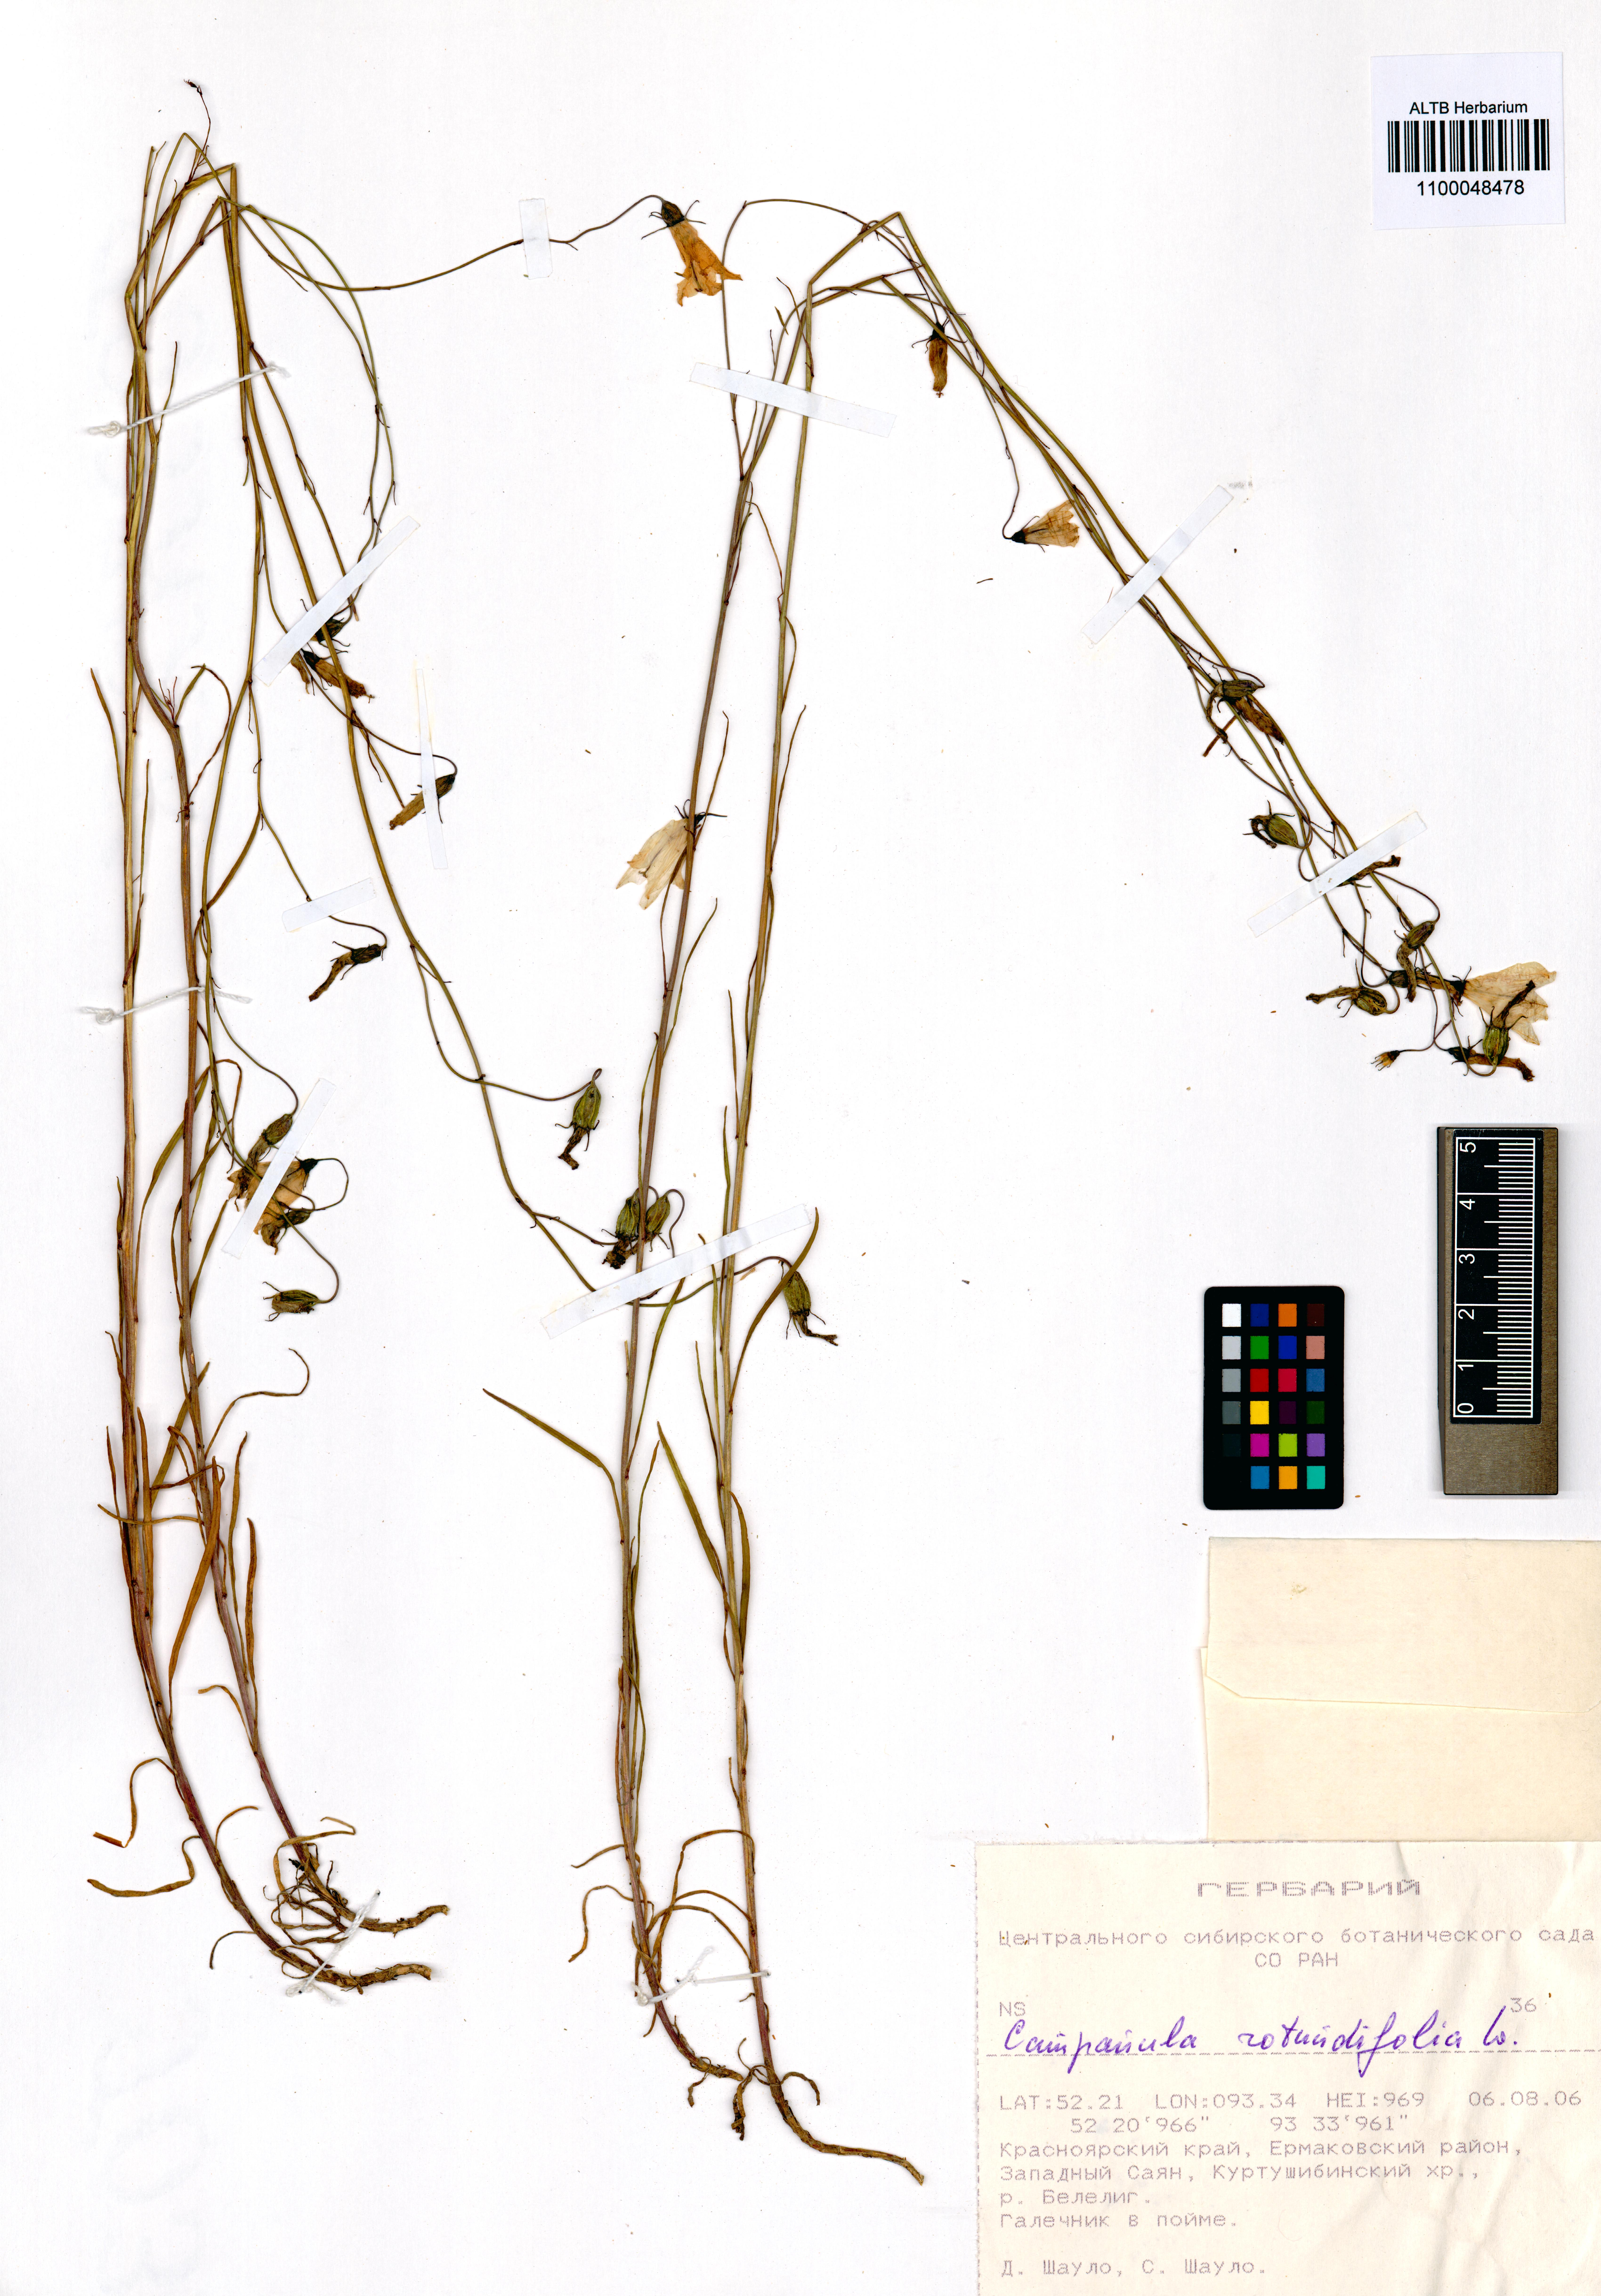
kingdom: Plantae
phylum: Tracheophyta
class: Magnoliopsida
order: Asterales
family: Campanulaceae
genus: Campanula
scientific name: Campanula rotundifolia
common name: Harebell
